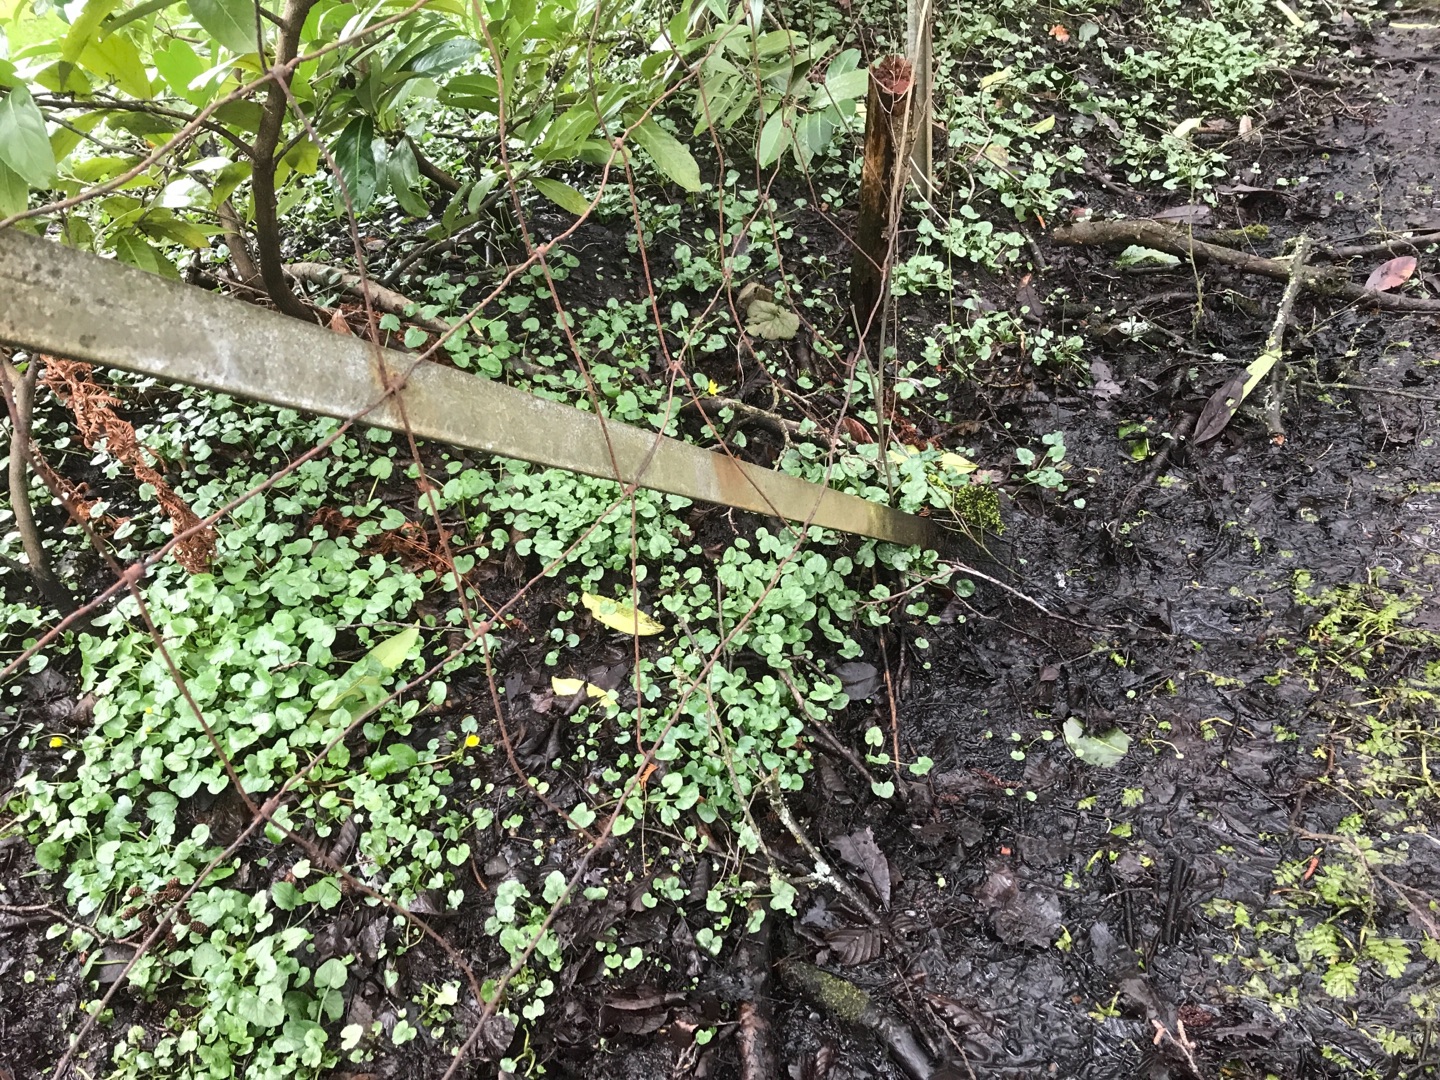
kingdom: Plantae
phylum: Tracheophyta
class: Magnoliopsida
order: Ranunculales
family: Ranunculaceae
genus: Ficaria
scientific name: Ficaria verna
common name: Vorterod
